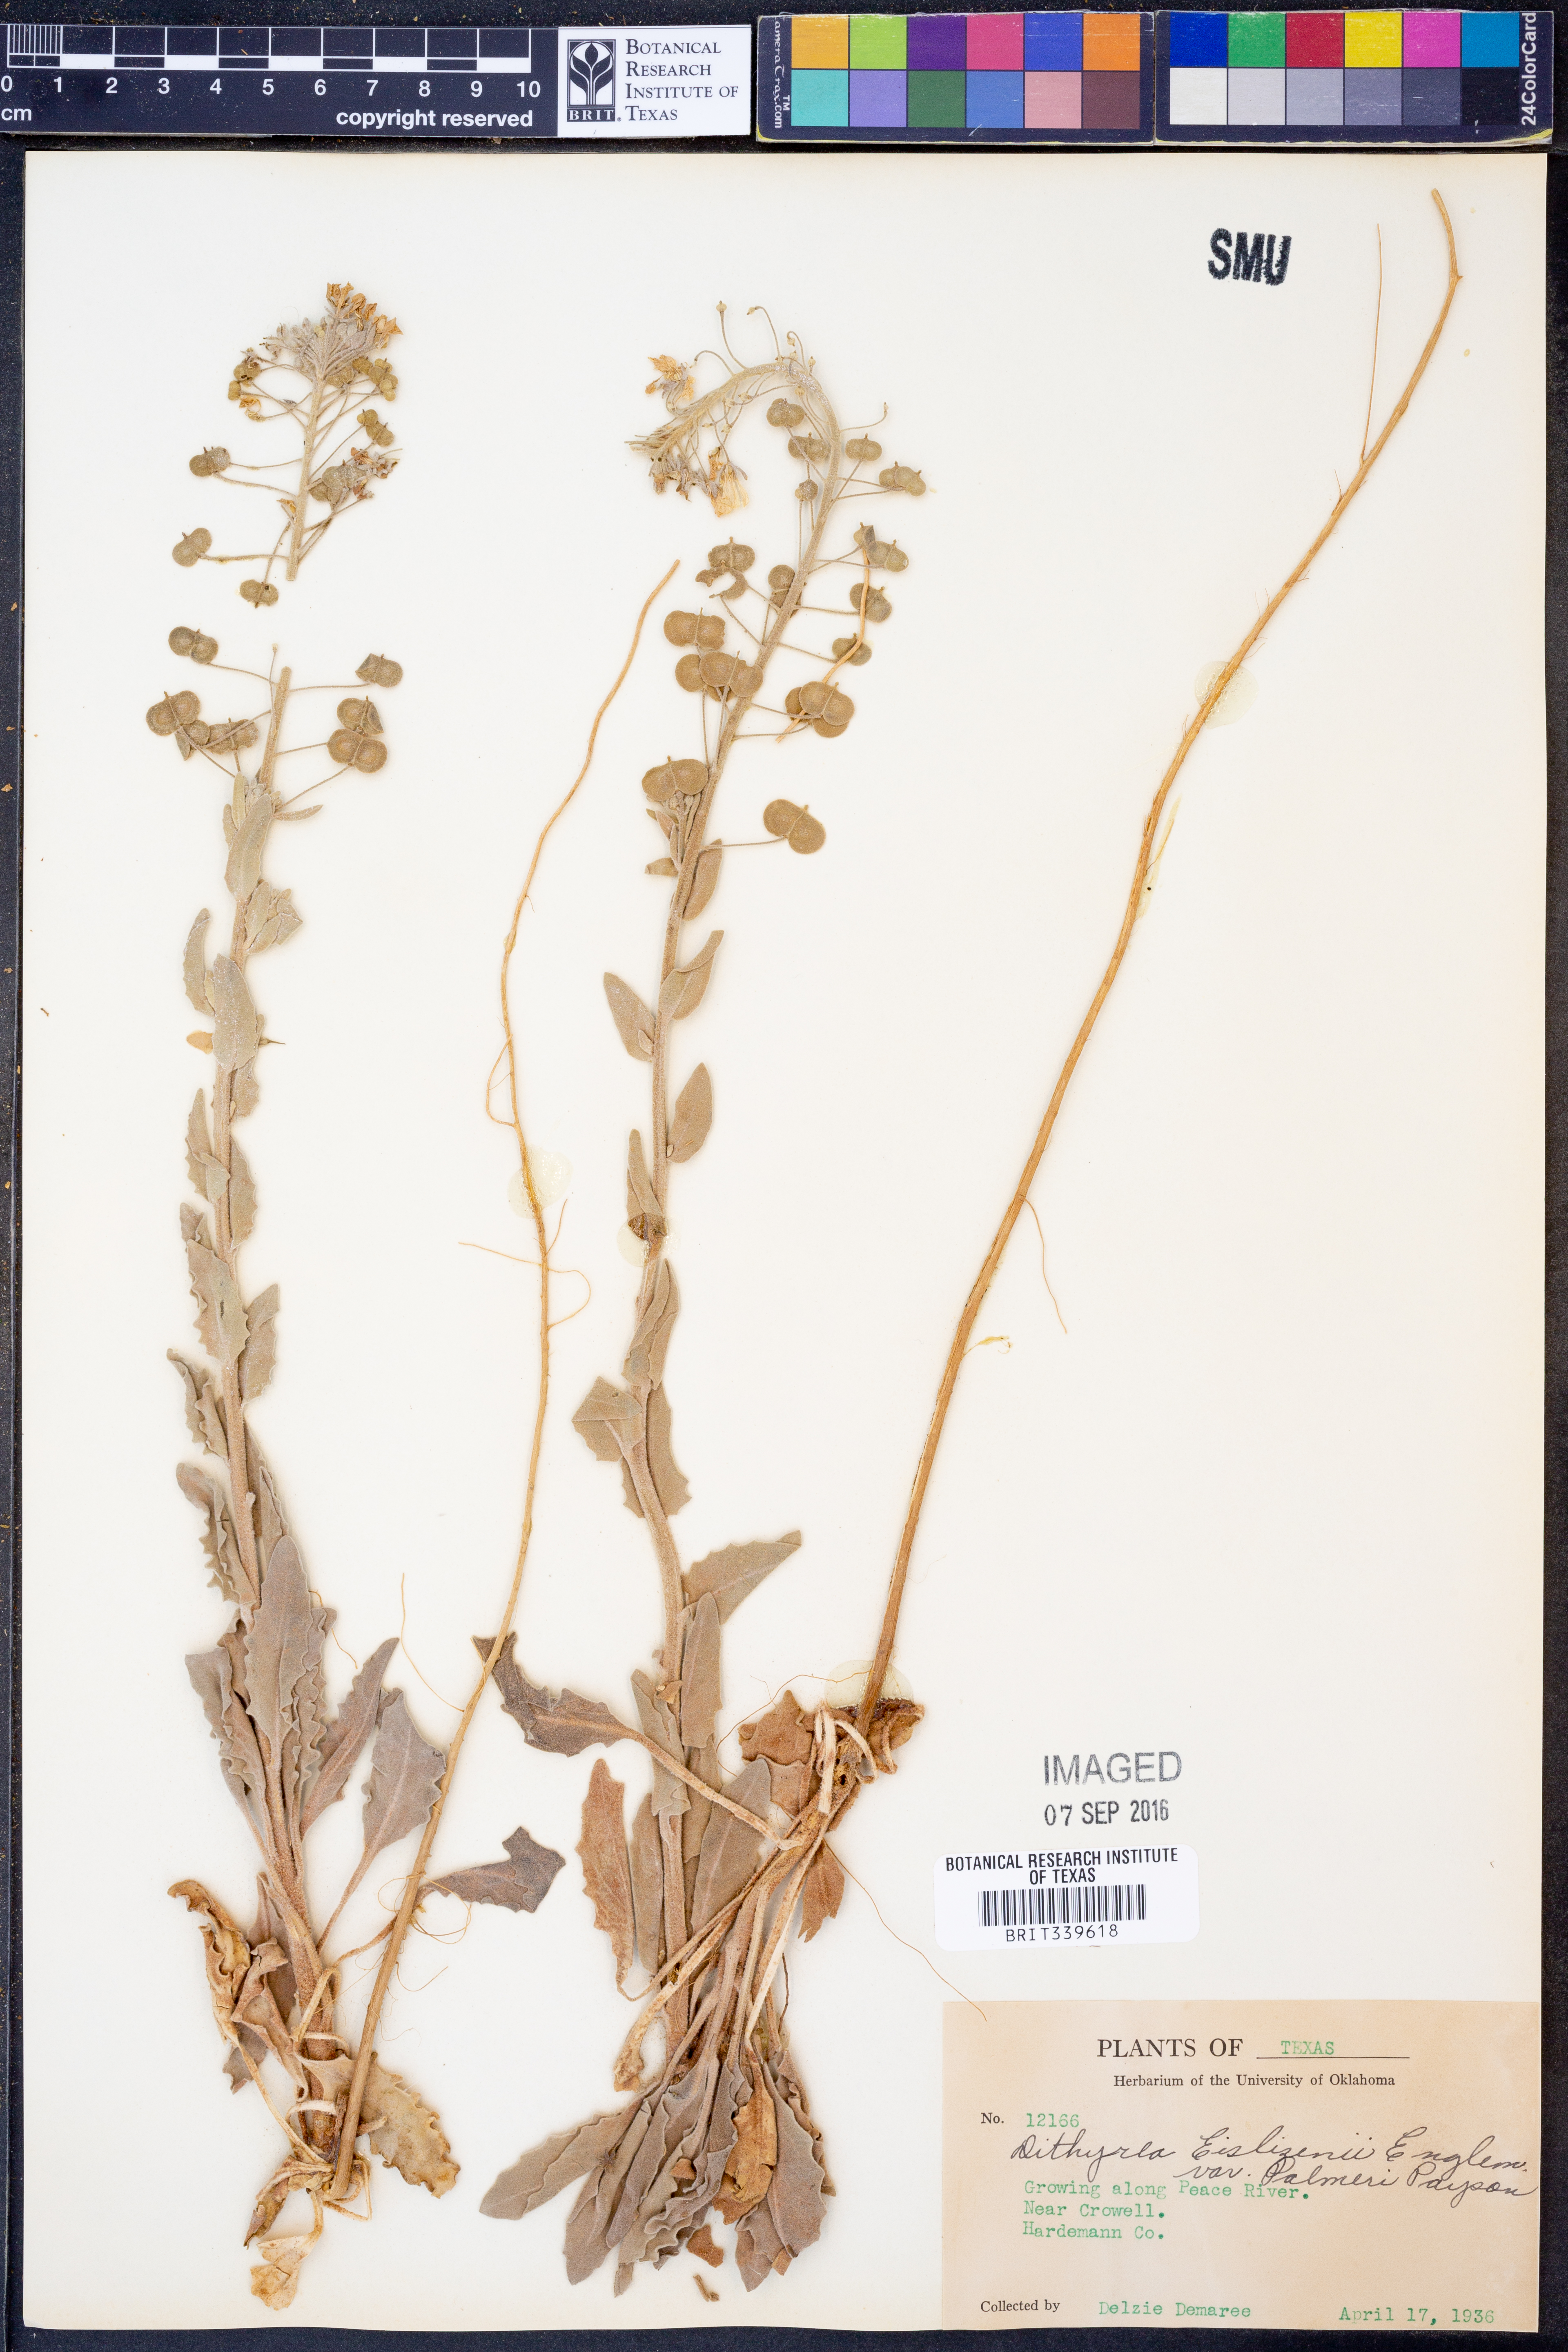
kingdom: Plantae
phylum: Tracheophyta
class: Magnoliopsida
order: Brassicales
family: Brassicaceae
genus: Dimorphocarpa
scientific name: Dimorphocarpa candicans
